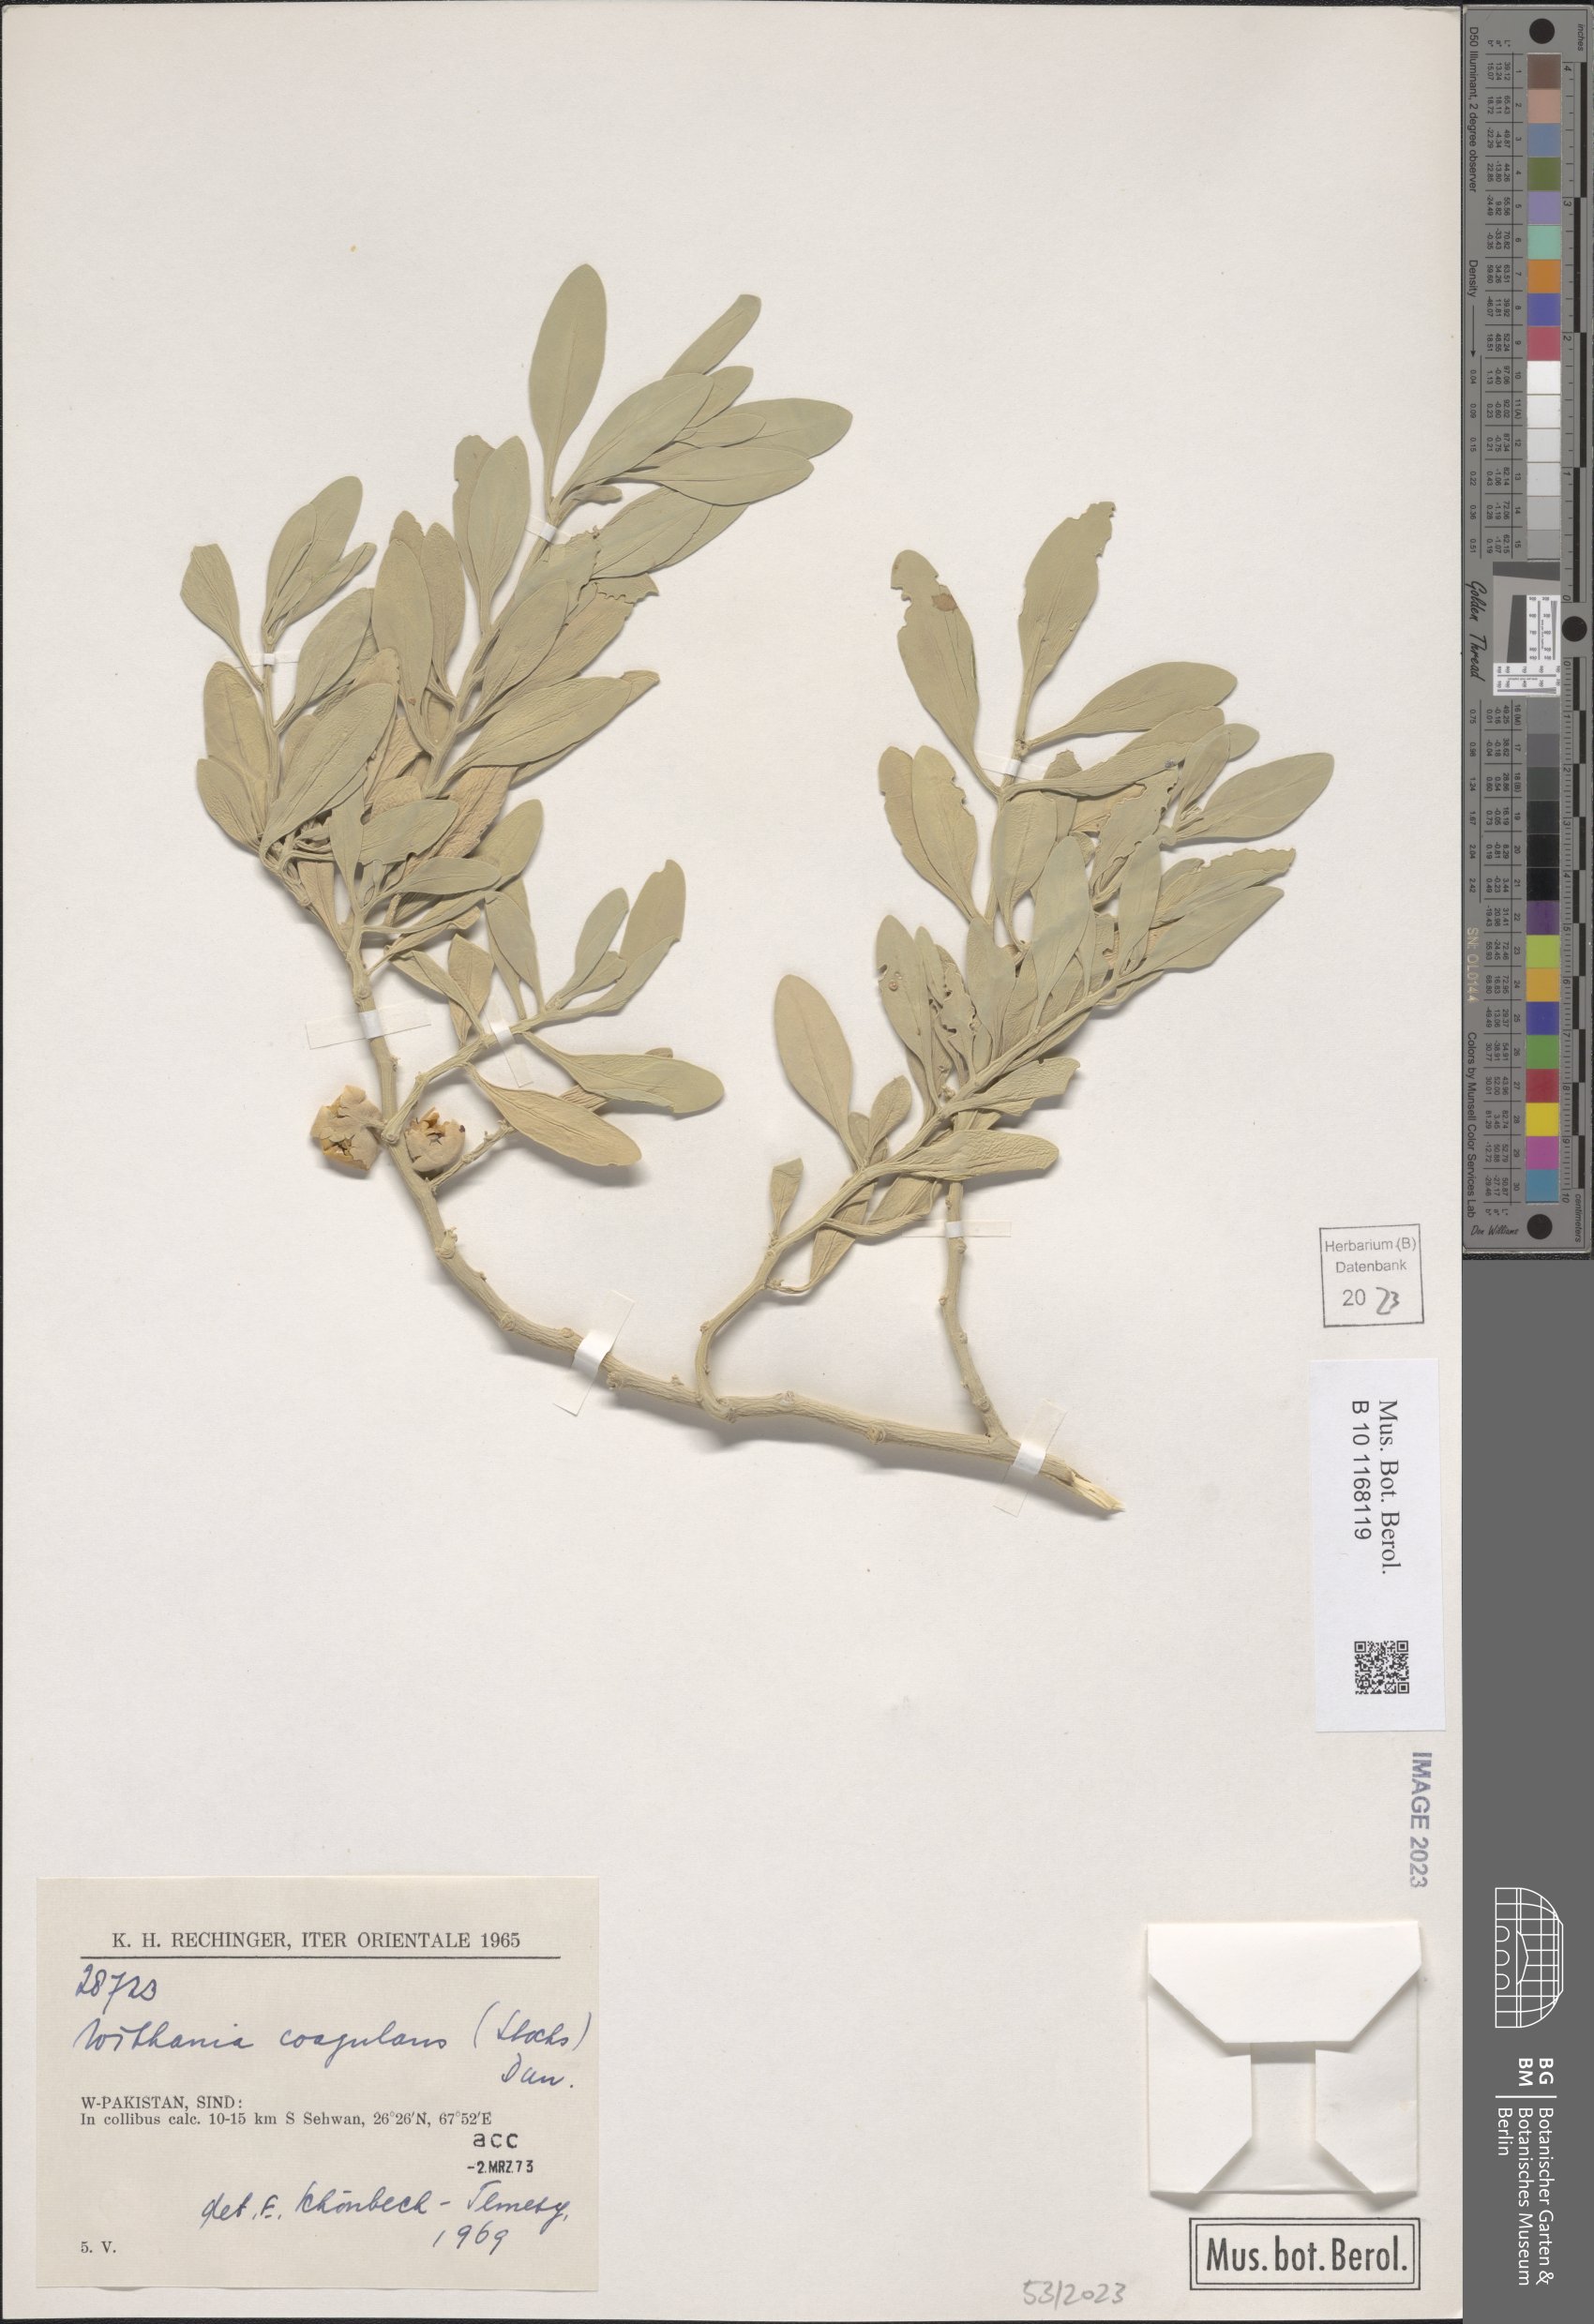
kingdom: Plantae
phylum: Tracheophyta
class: Magnoliopsida
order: Solanales
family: Solanaceae
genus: Withania
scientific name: Withania coagulans
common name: Vegetable rennet
